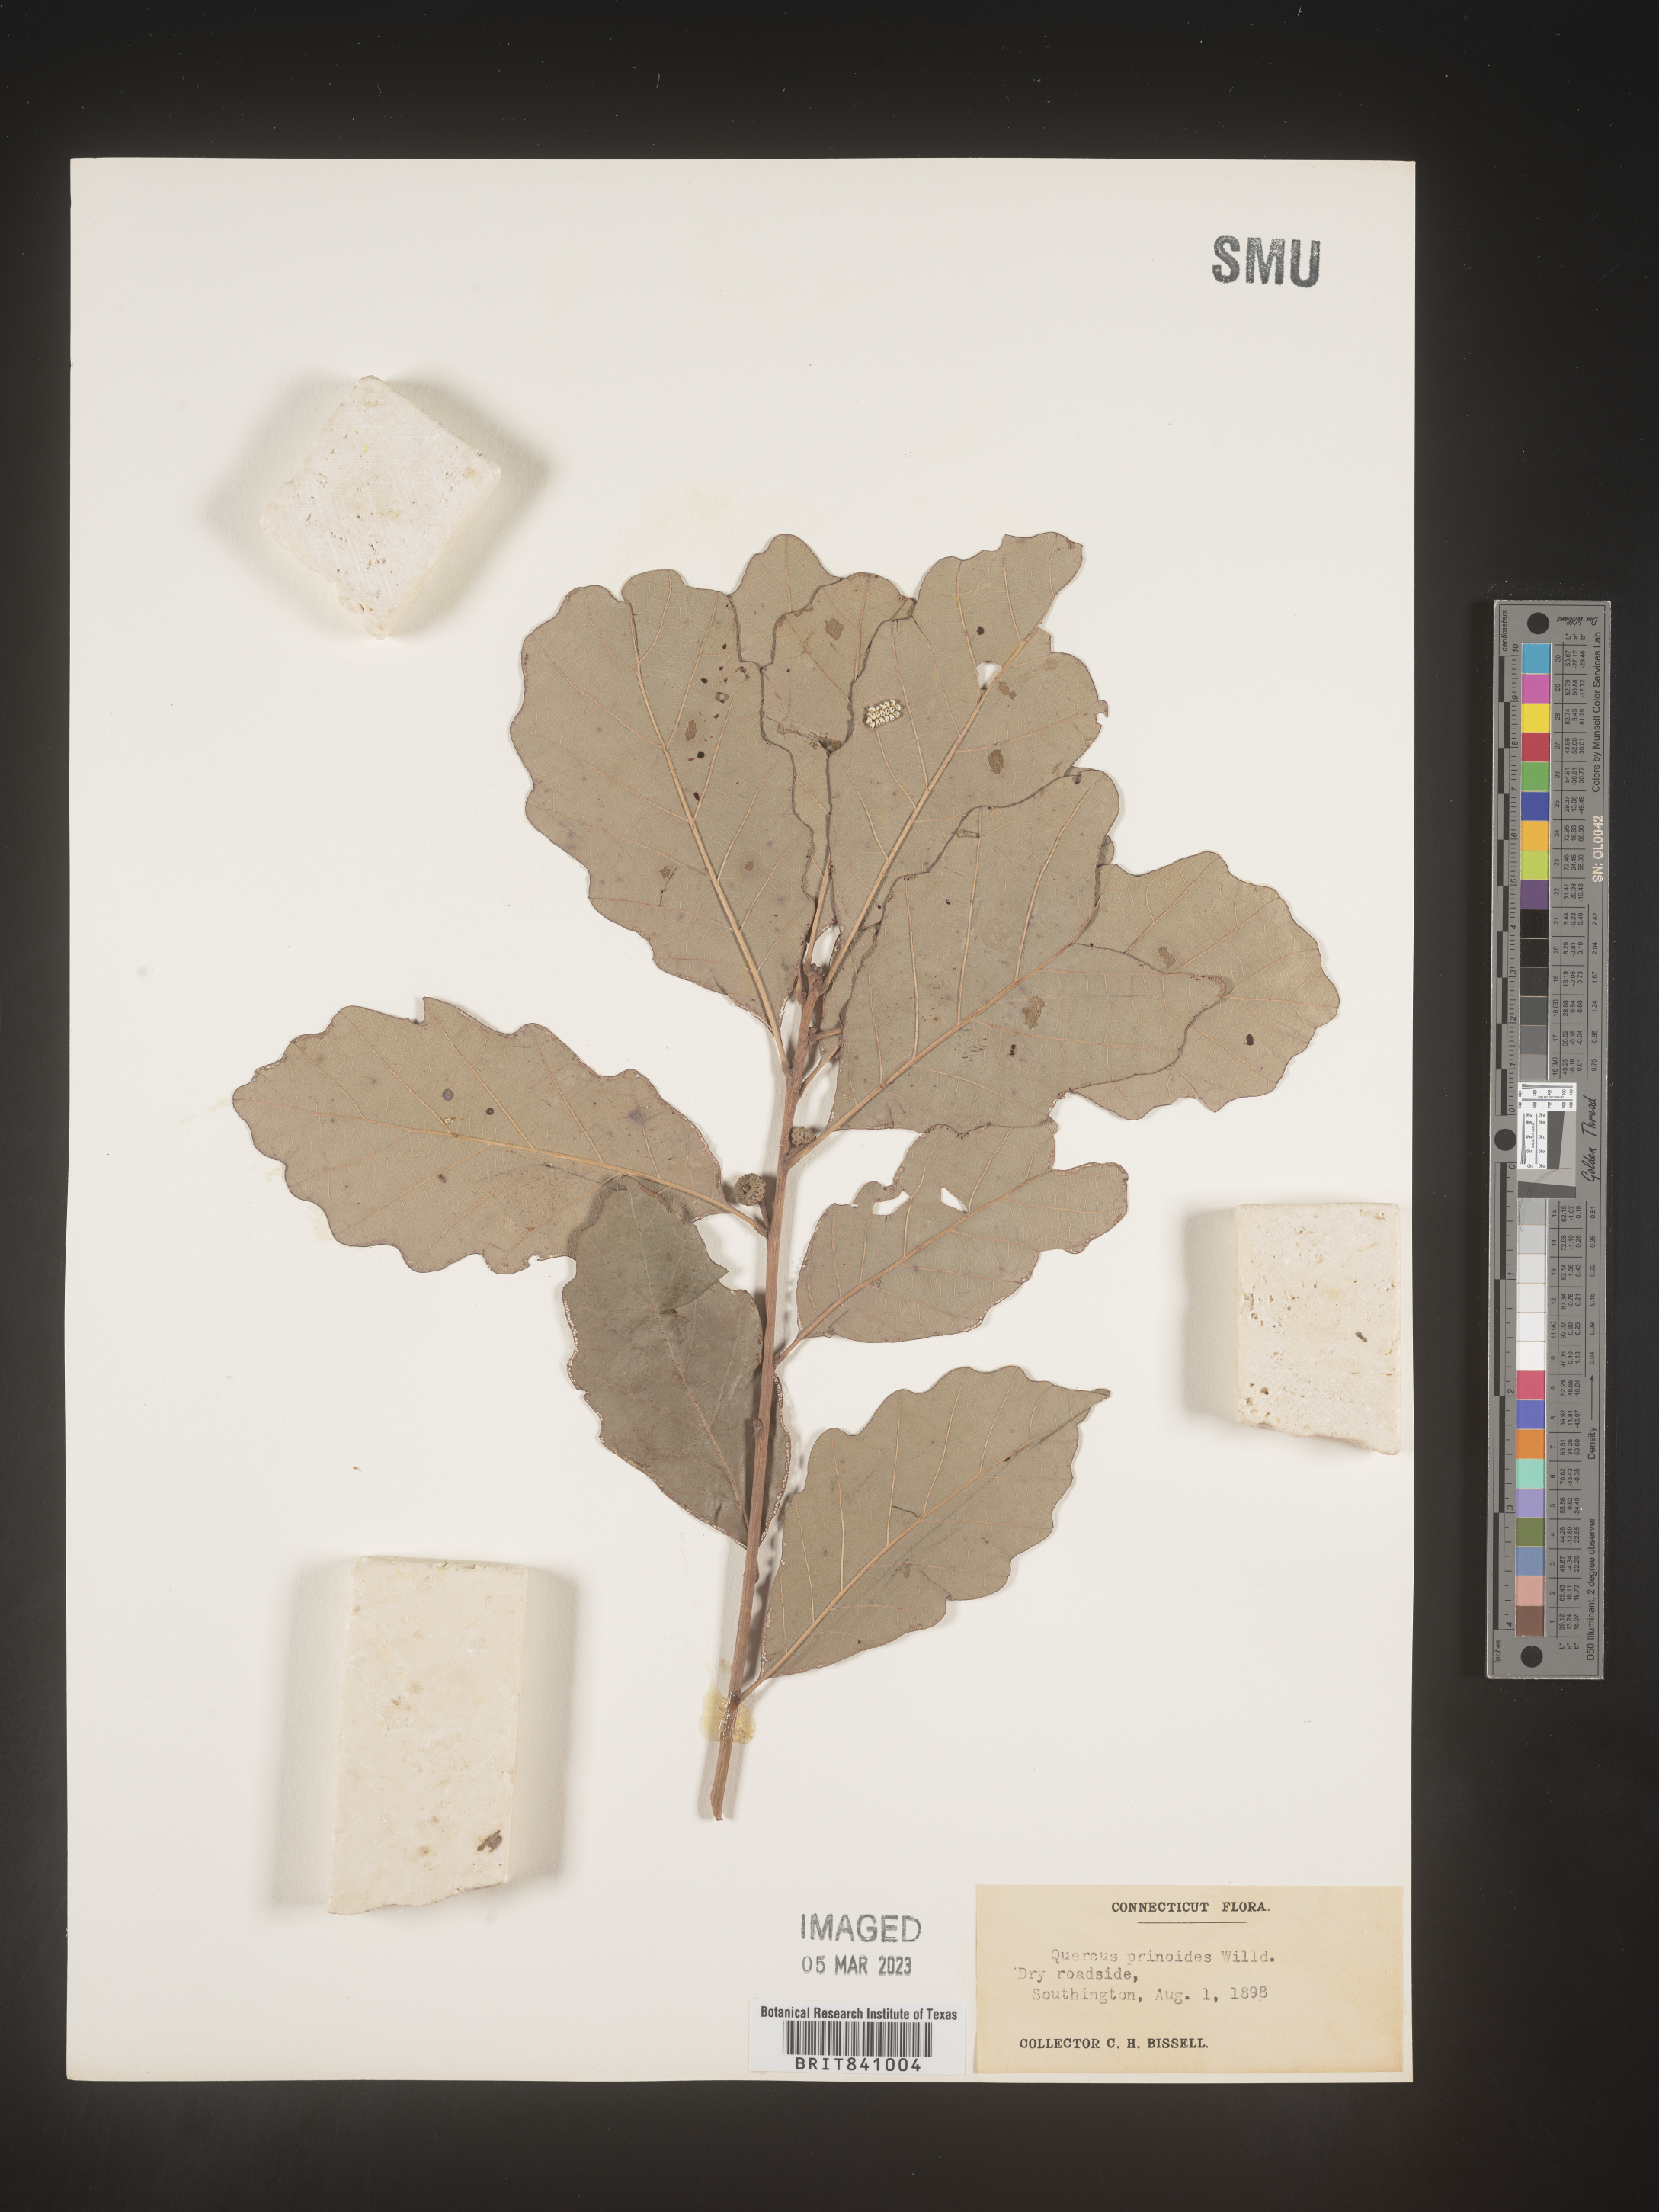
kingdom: Plantae
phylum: Tracheophyta
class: Magnoliopsida
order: Fagales
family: Fagaceae
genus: Quercus
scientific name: Quercus prinoides
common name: Dwarf chinkapin oak
